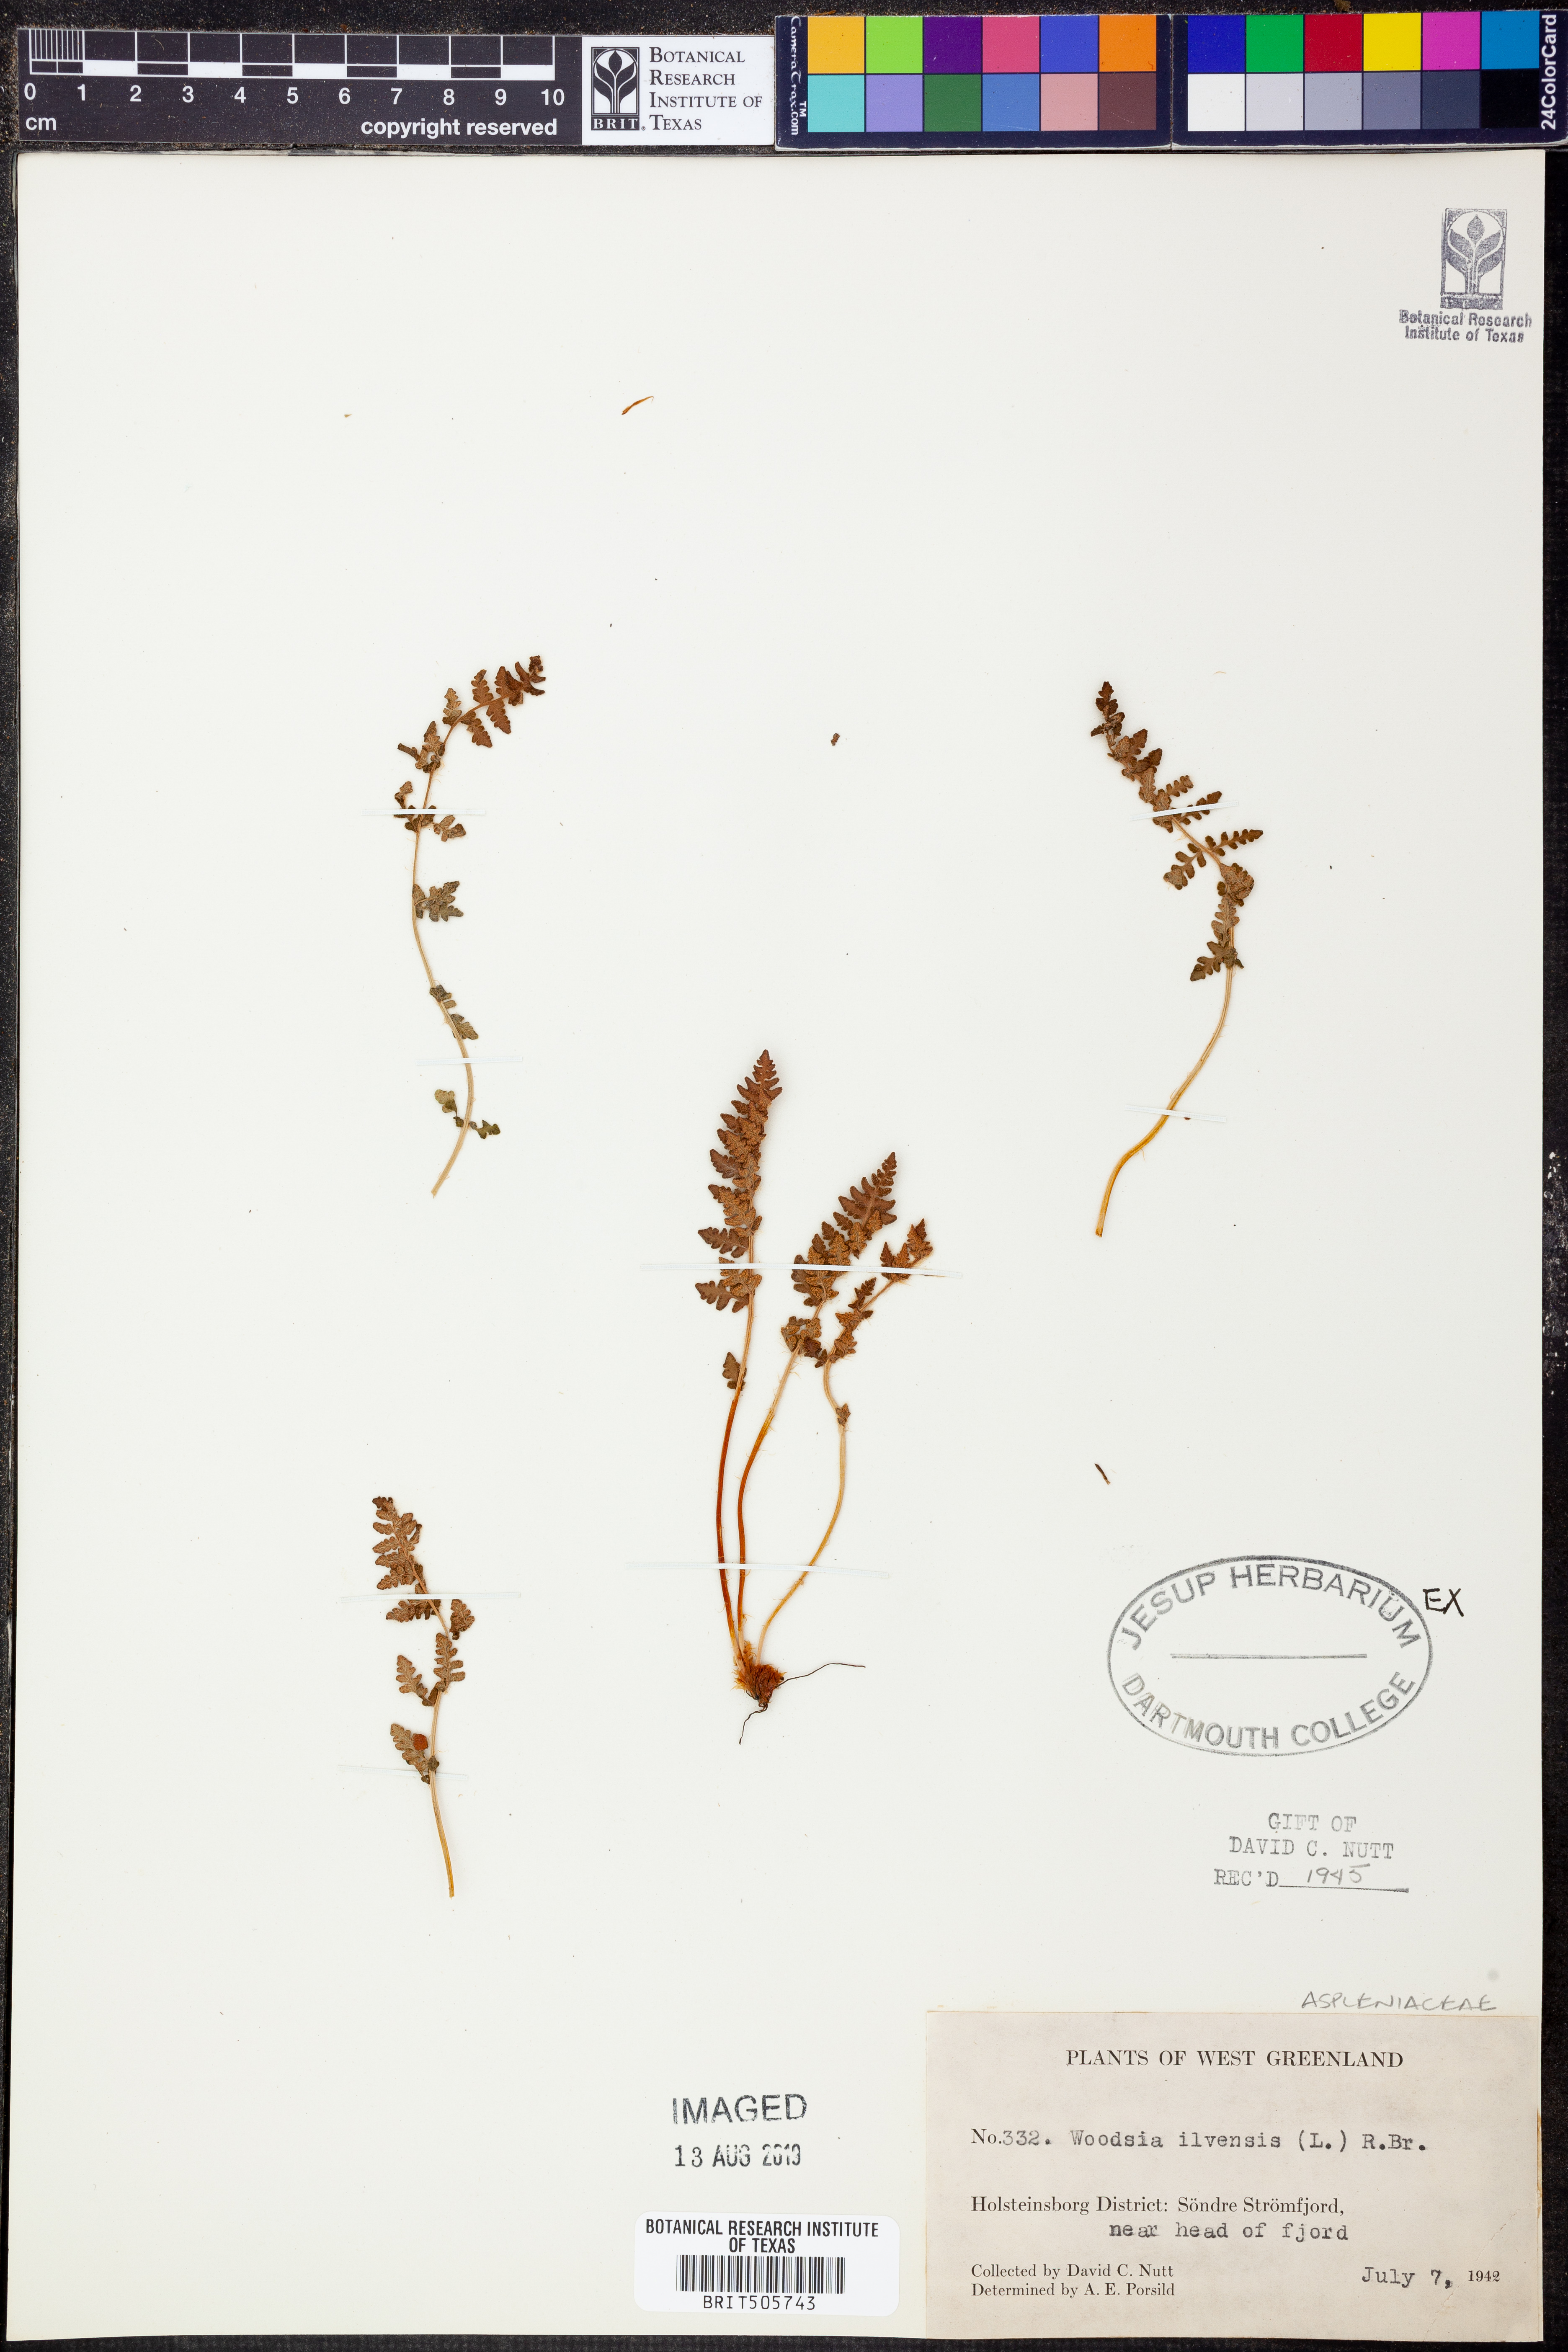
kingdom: Plantae
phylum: Tracheophyta
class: Polypodiopsida
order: Polypodiales
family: Woodsiaceae
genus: Woodsia
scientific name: Woodsia ilvensis
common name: Fragrant woodsia
